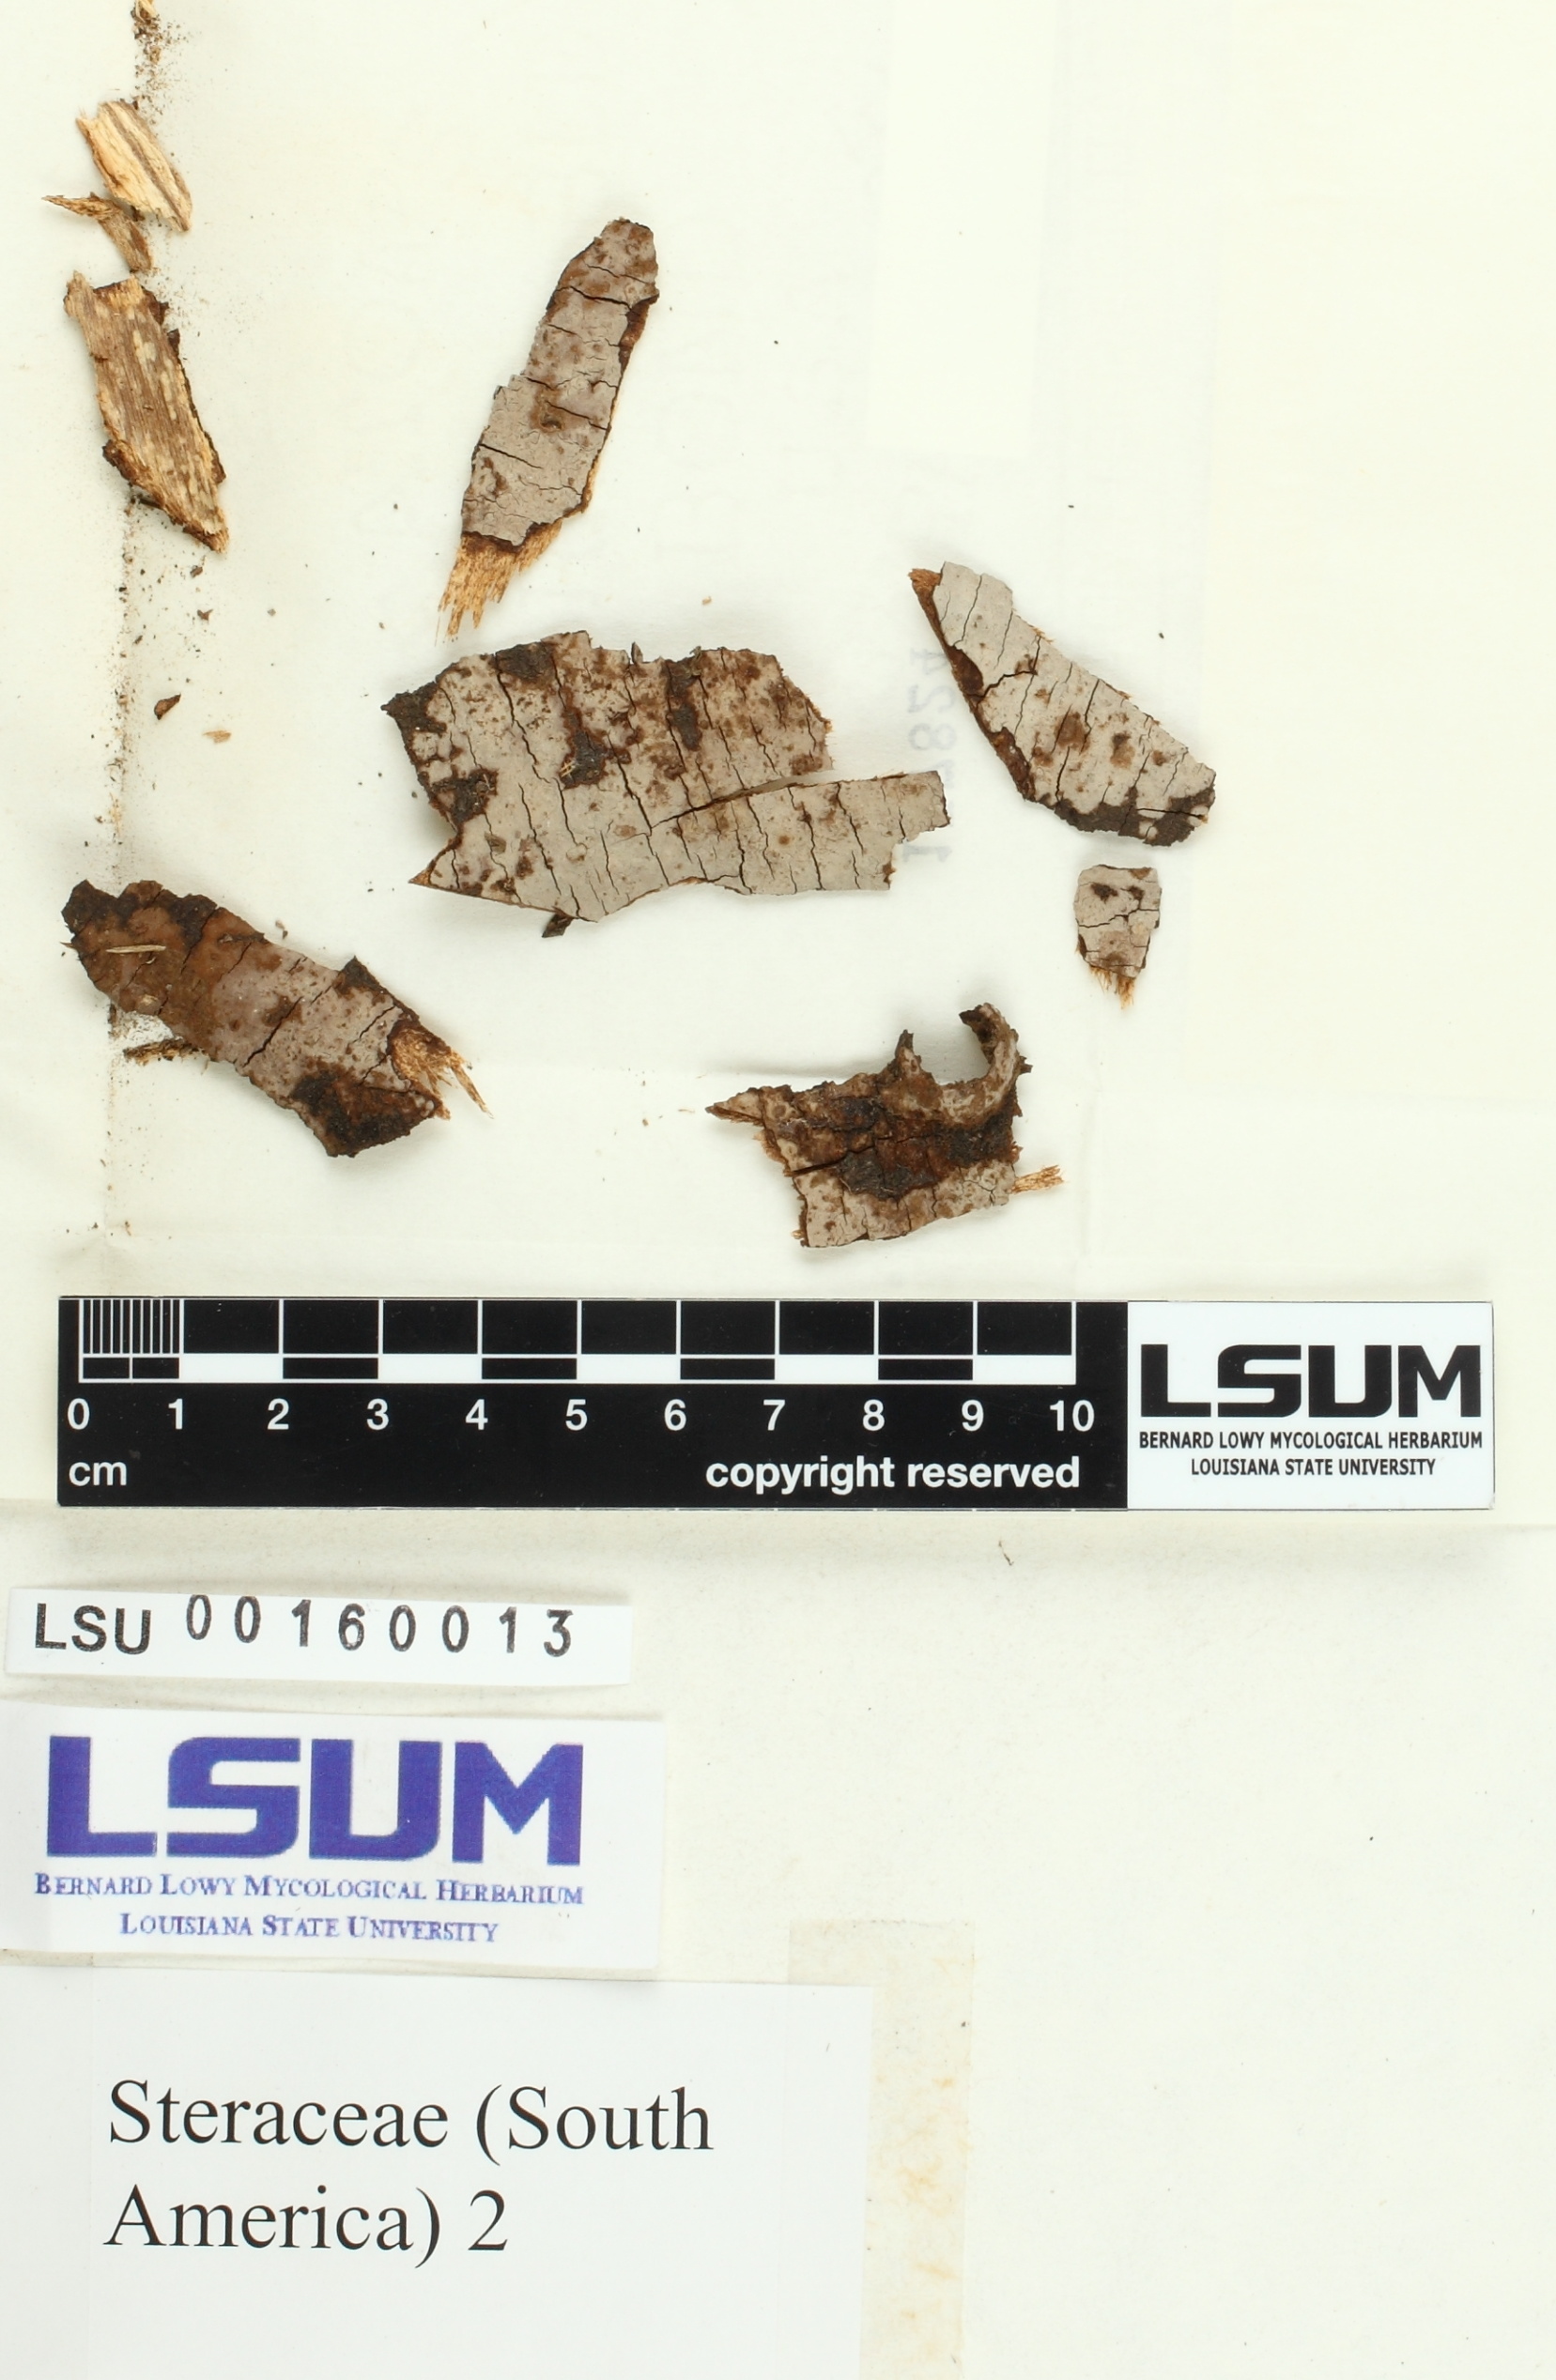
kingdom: Fungi
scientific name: Fungi
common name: Fungi
